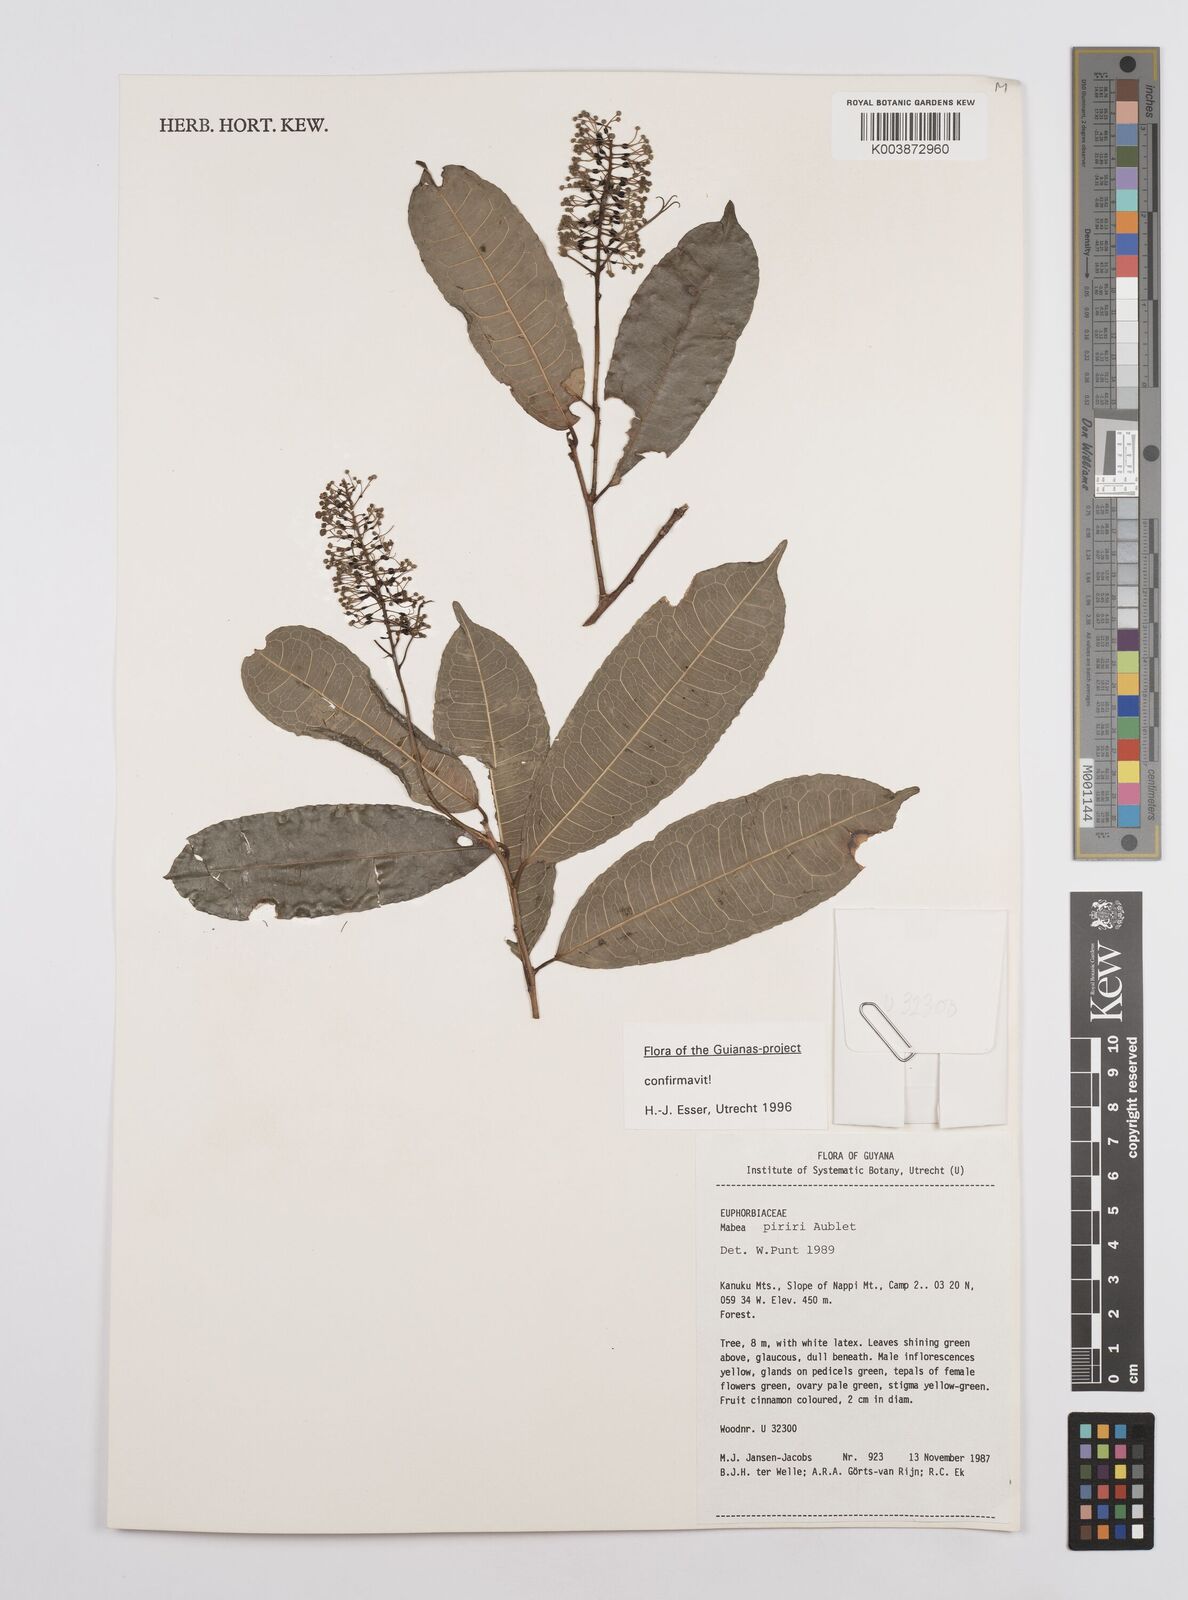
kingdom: Plantae
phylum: Tracheophyta
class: Magnoliopsida
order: Malpighiales
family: Euphorbiaceae
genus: Mabea
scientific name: Mabea piriri
